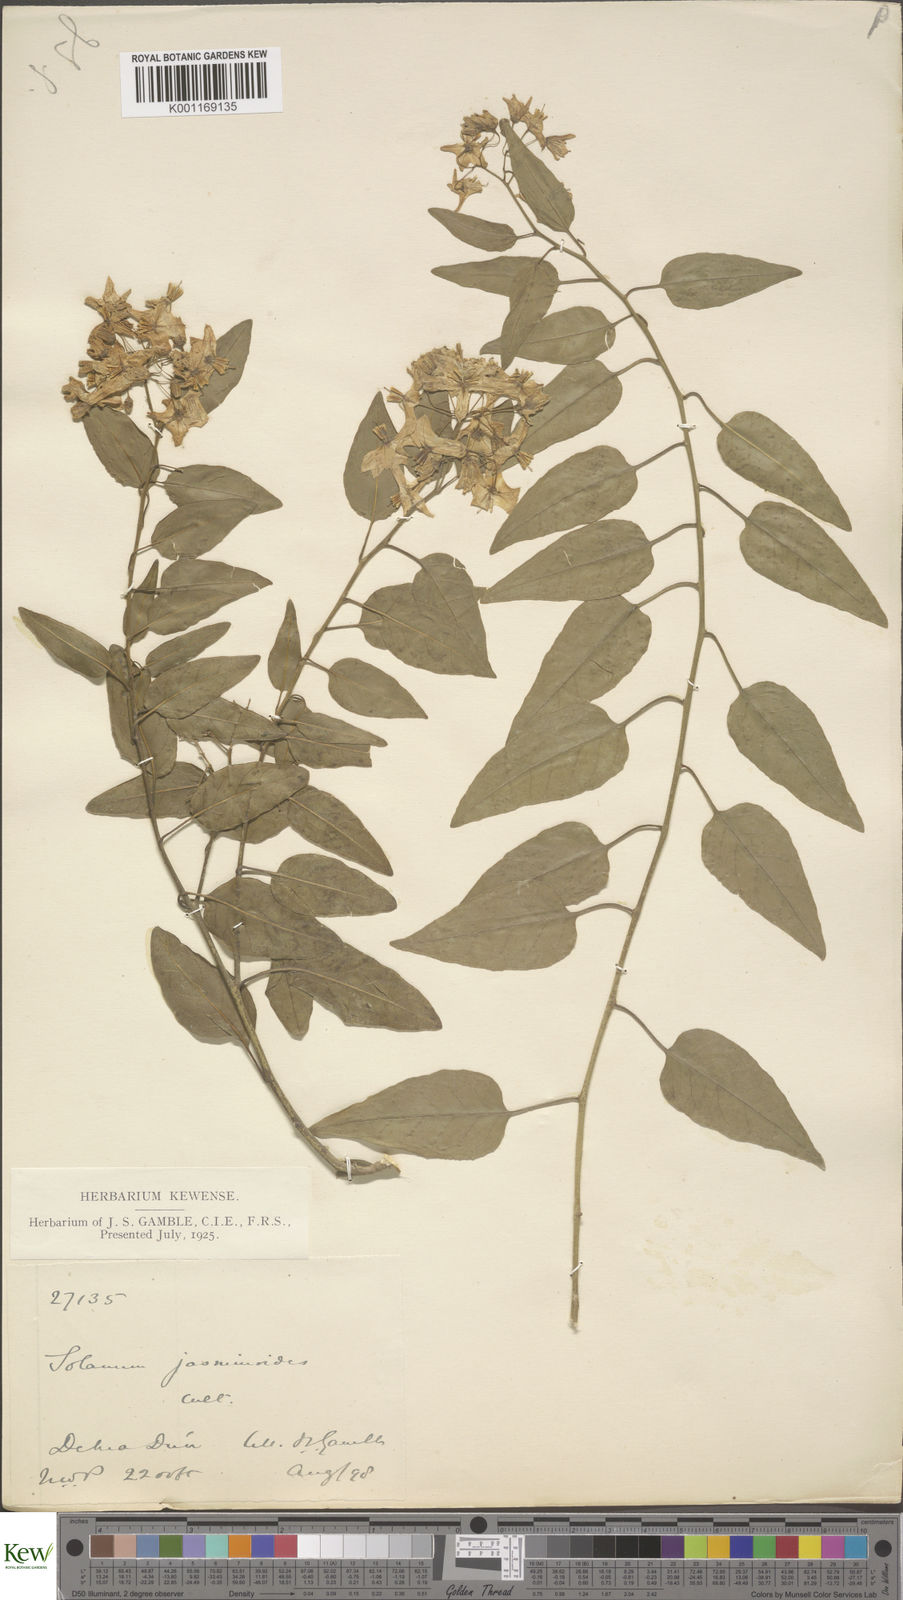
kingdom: Plantae
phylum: Tracheophyta
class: Magnoliopsida
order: Solanales
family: Solanaceae
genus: Solanum
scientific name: Solanum laxum
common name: Nightshade
